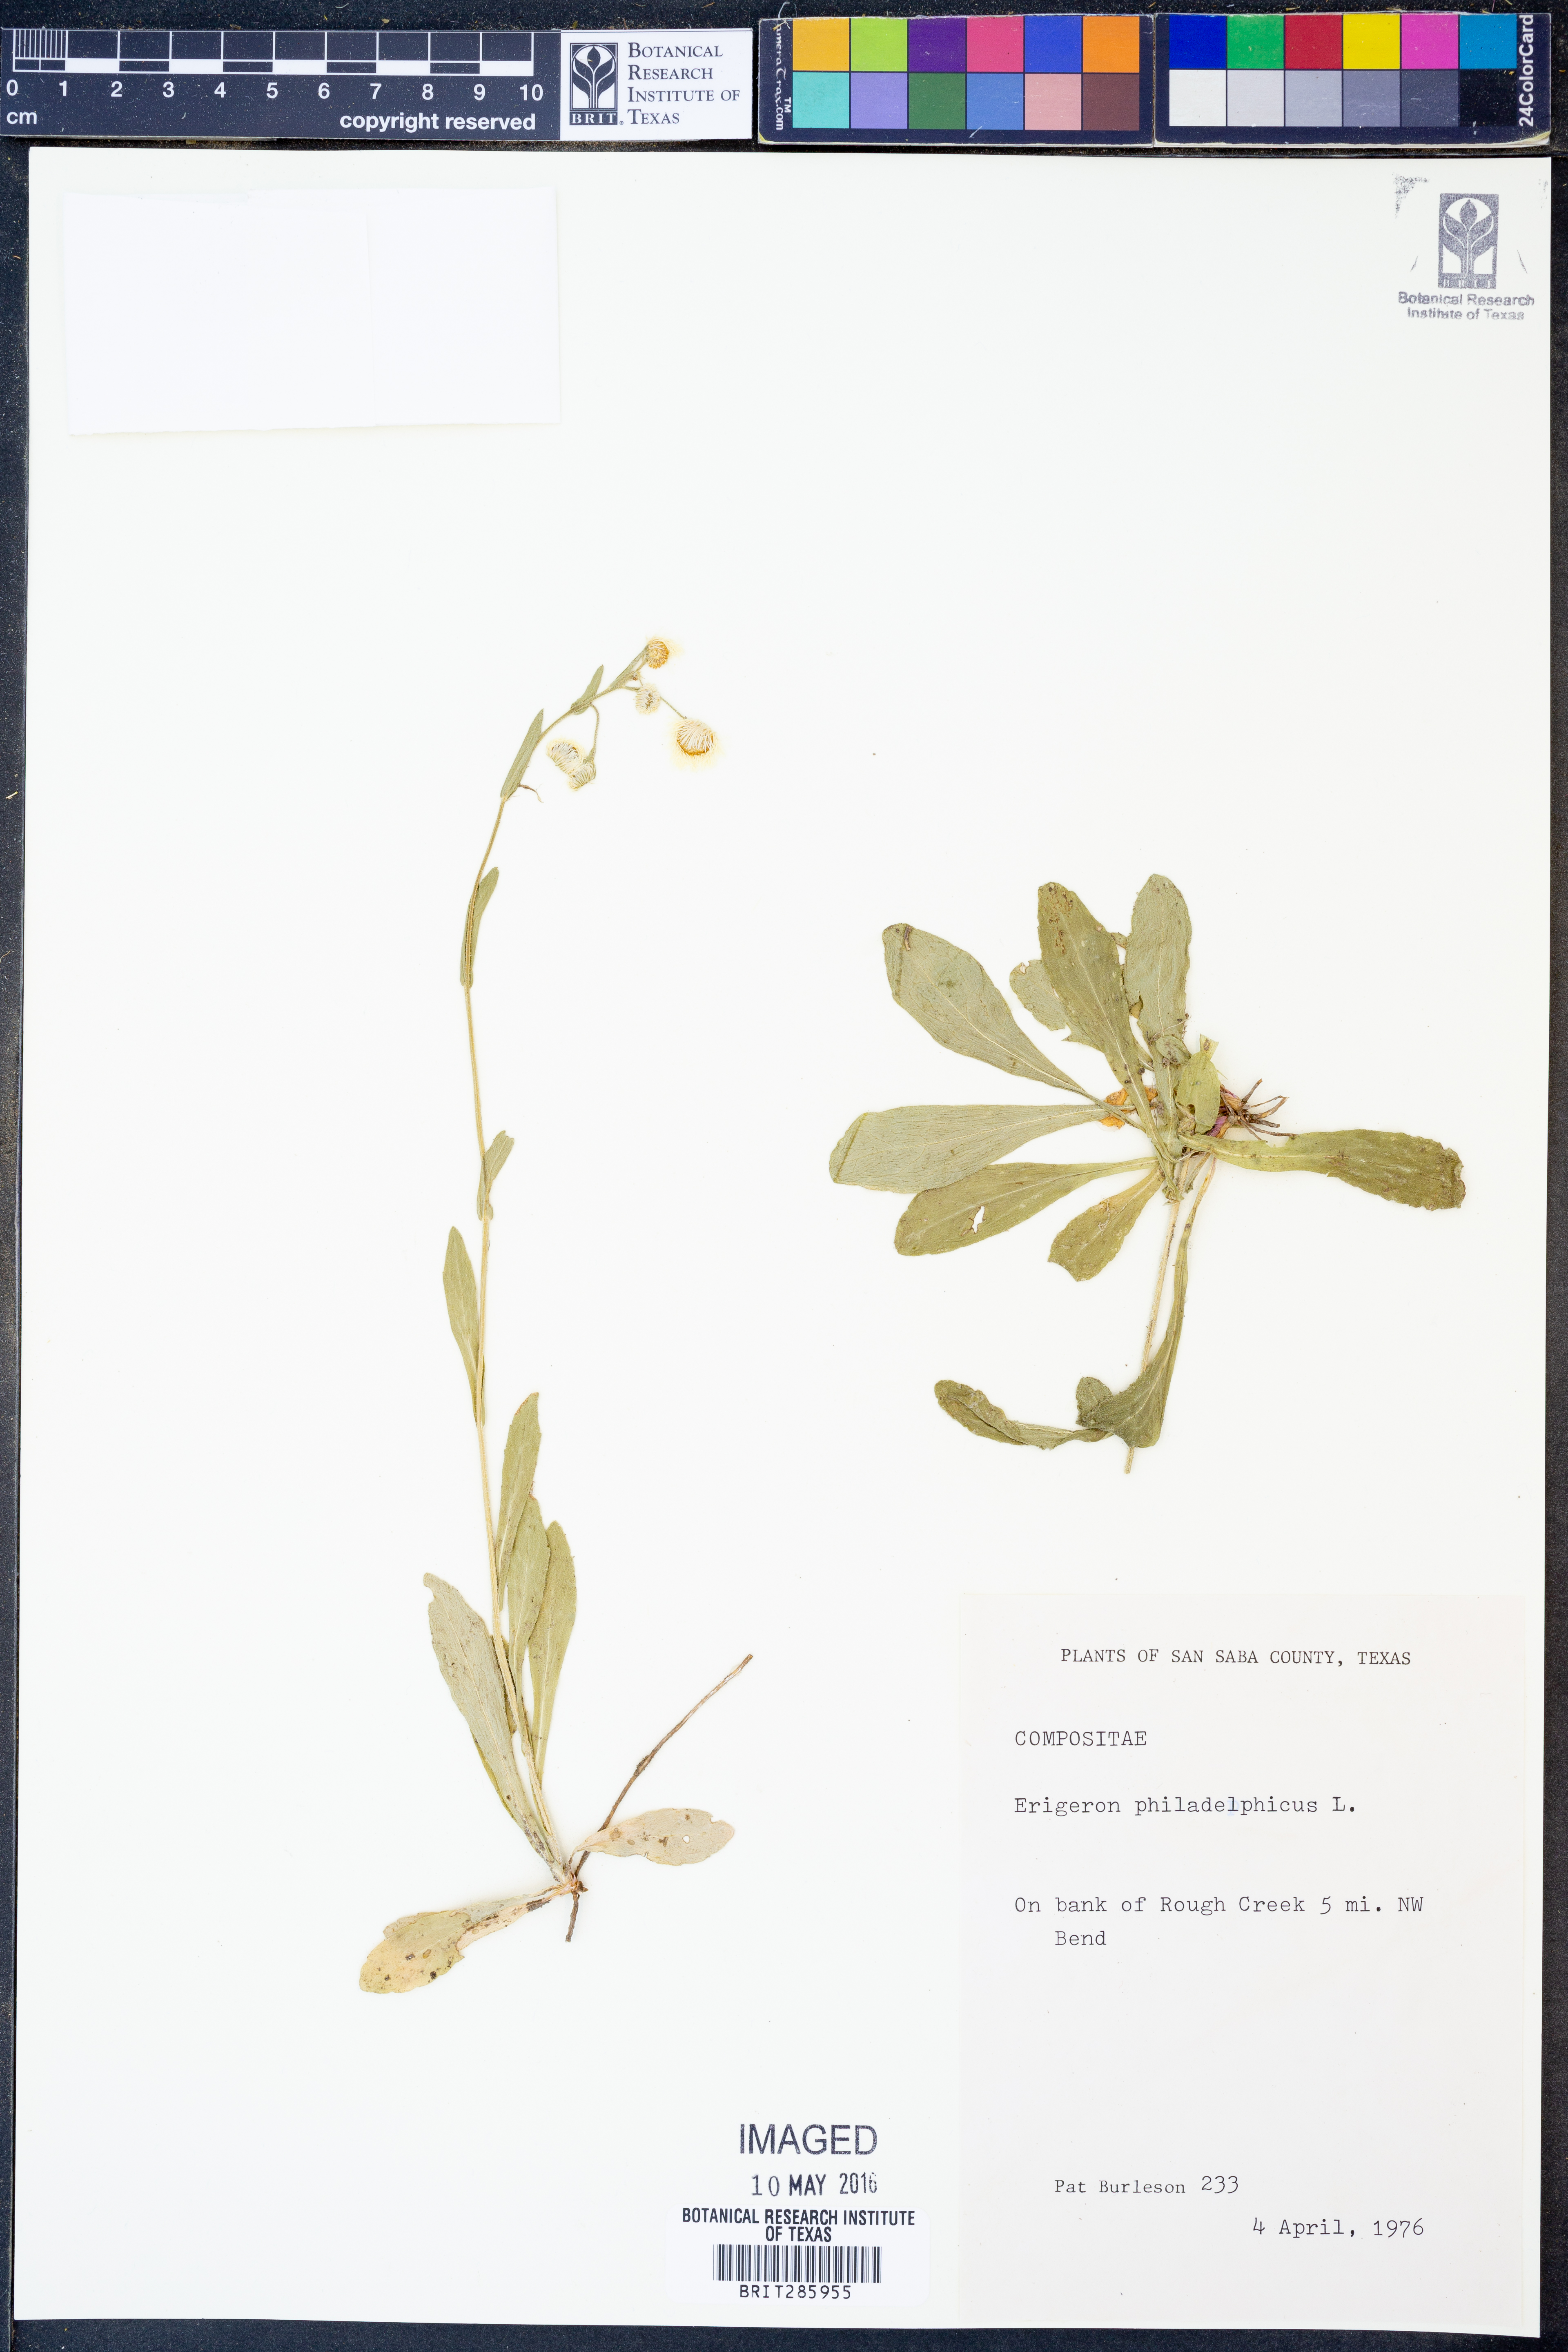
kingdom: Plantae
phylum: Tracheophyta
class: Magnoliopsida
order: Asterales
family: Asteraceae
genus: Erigeron
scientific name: Erigeron philadelphicus
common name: Robin's-plantain
